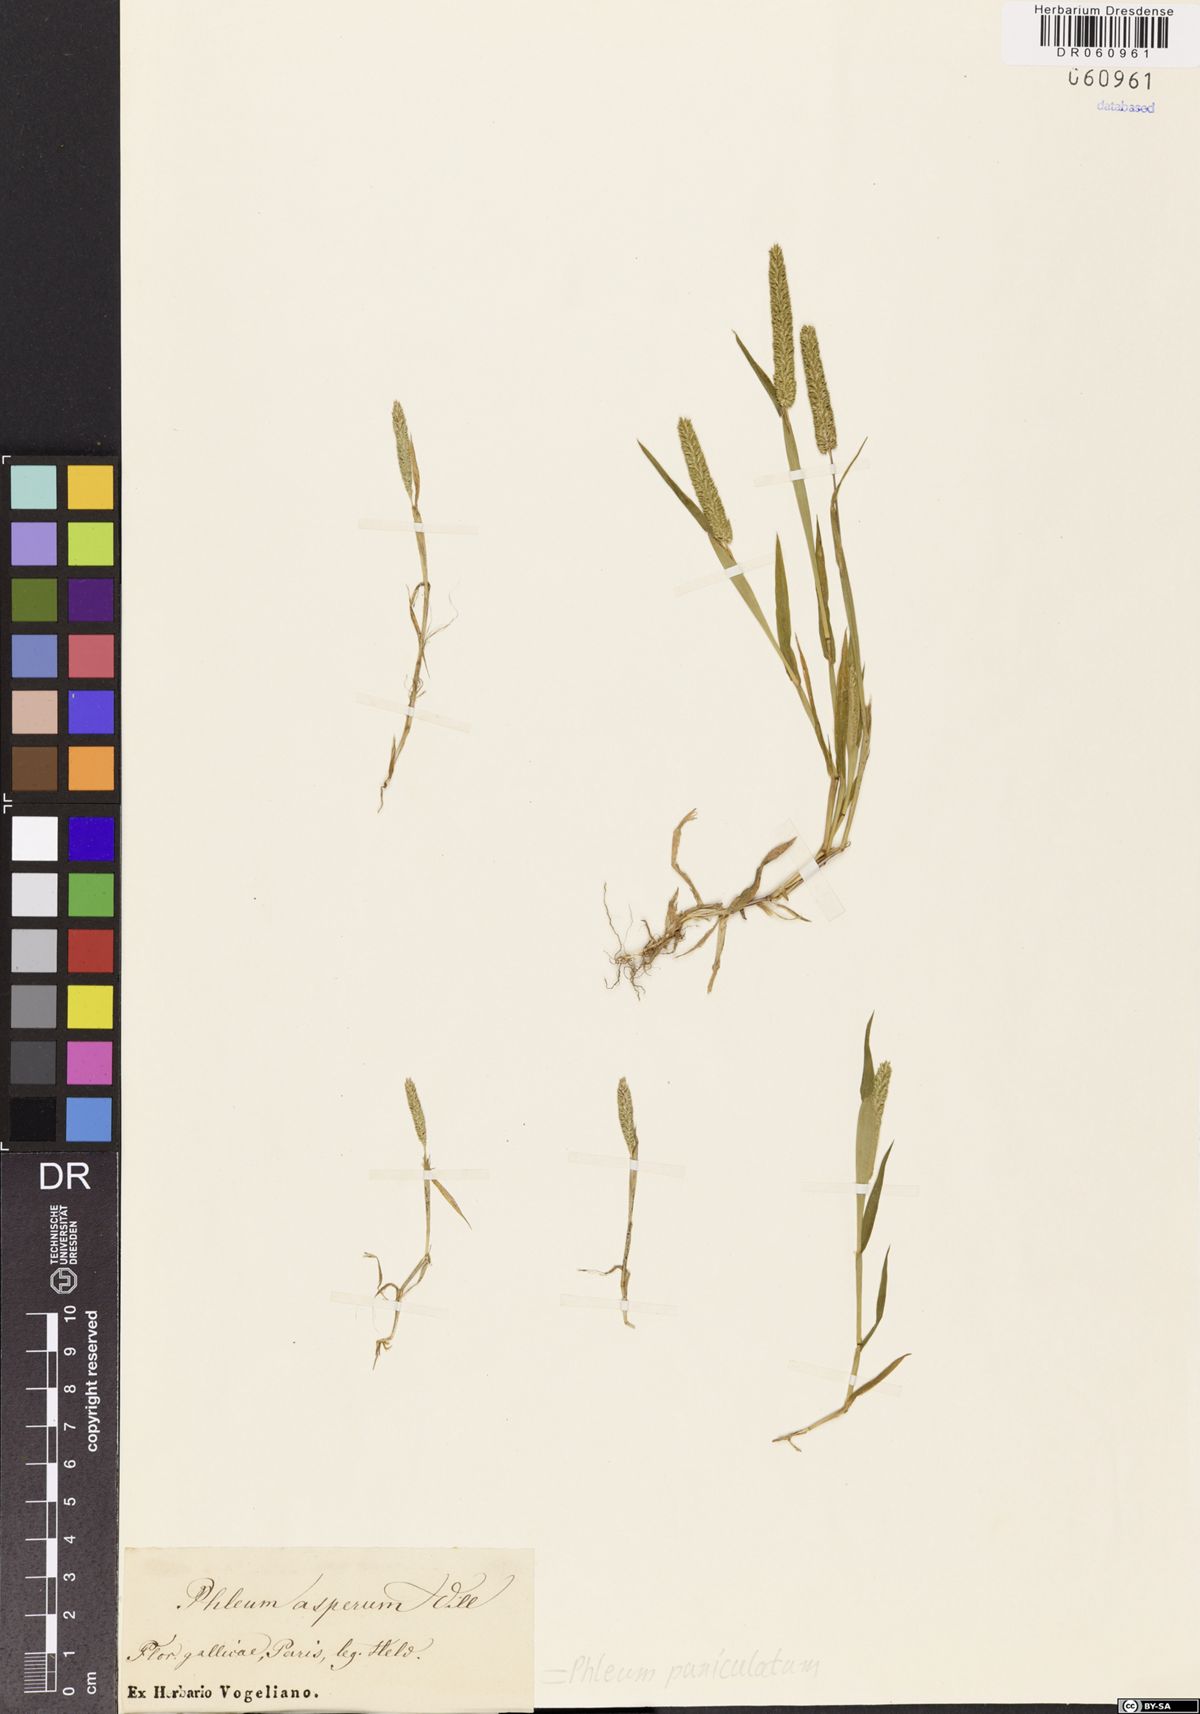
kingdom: Plantae
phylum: Tracheophyta
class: Liliopsida
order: Poales
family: Poaceae
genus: Phleum
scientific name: Phleum paniculatum
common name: British timothy
